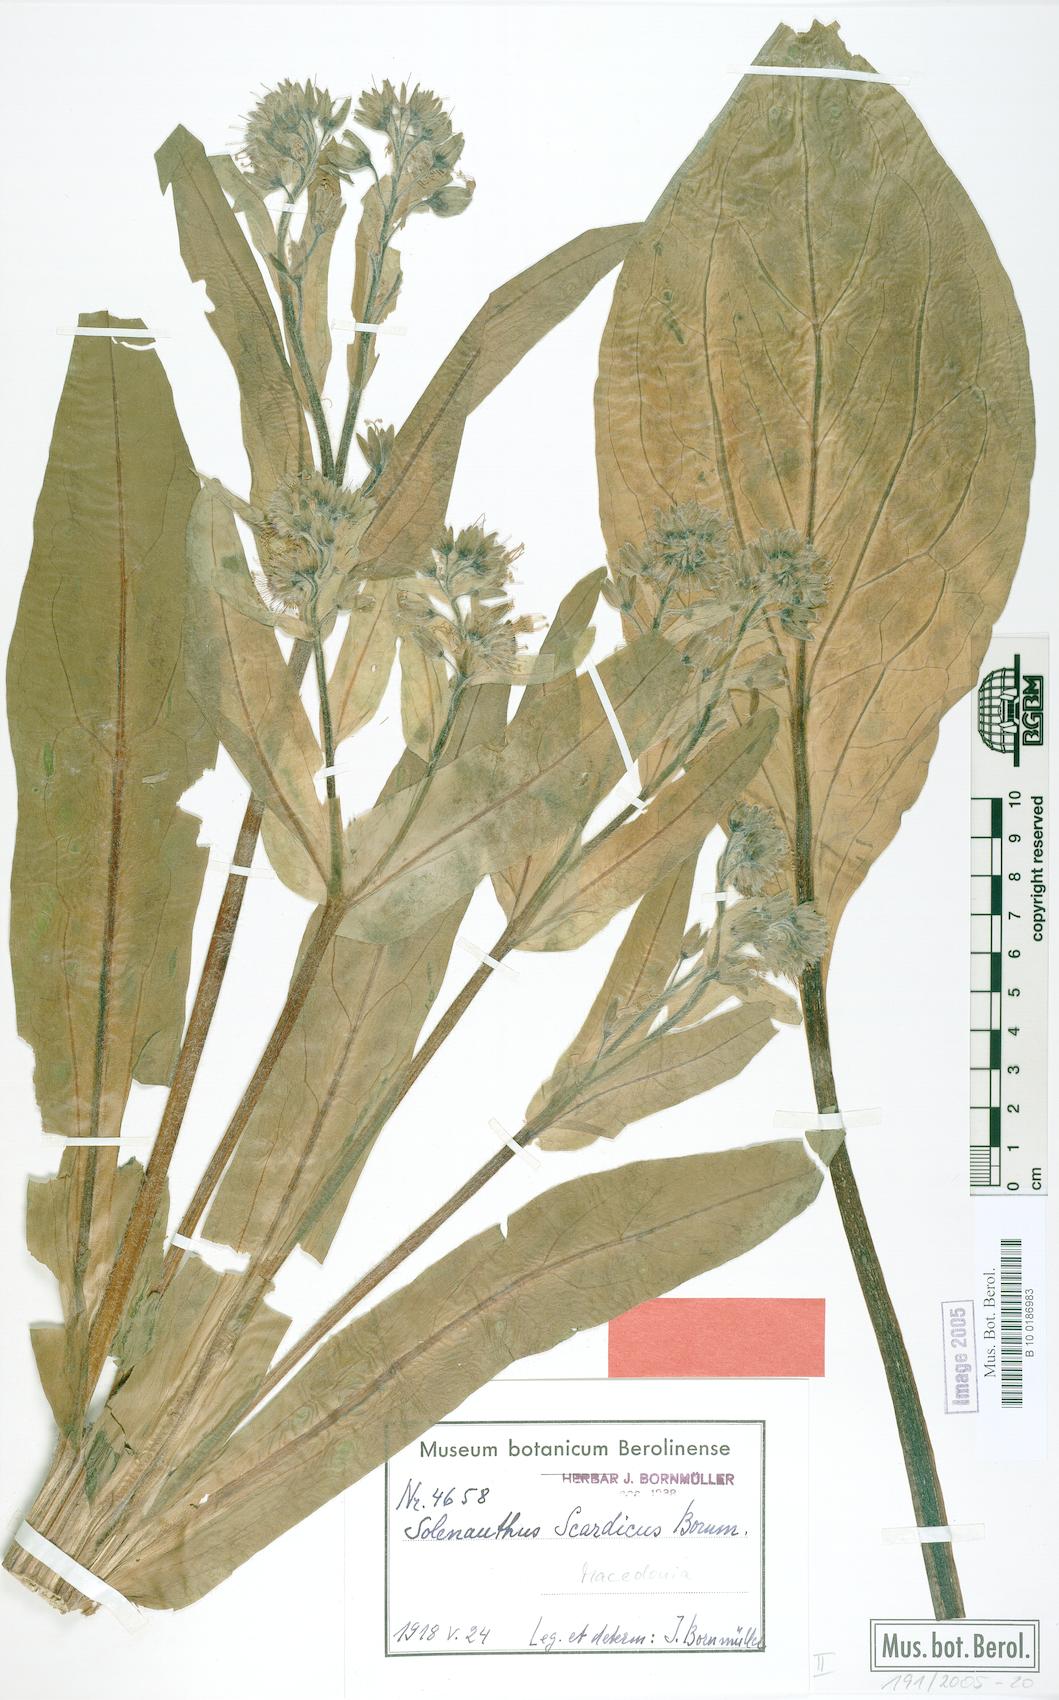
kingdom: Plantae
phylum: Tracheophyta
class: Magnoliopsida
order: Boraginales
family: Boraginaceae
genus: Solenanthus
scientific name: Solenanthus scardicus
